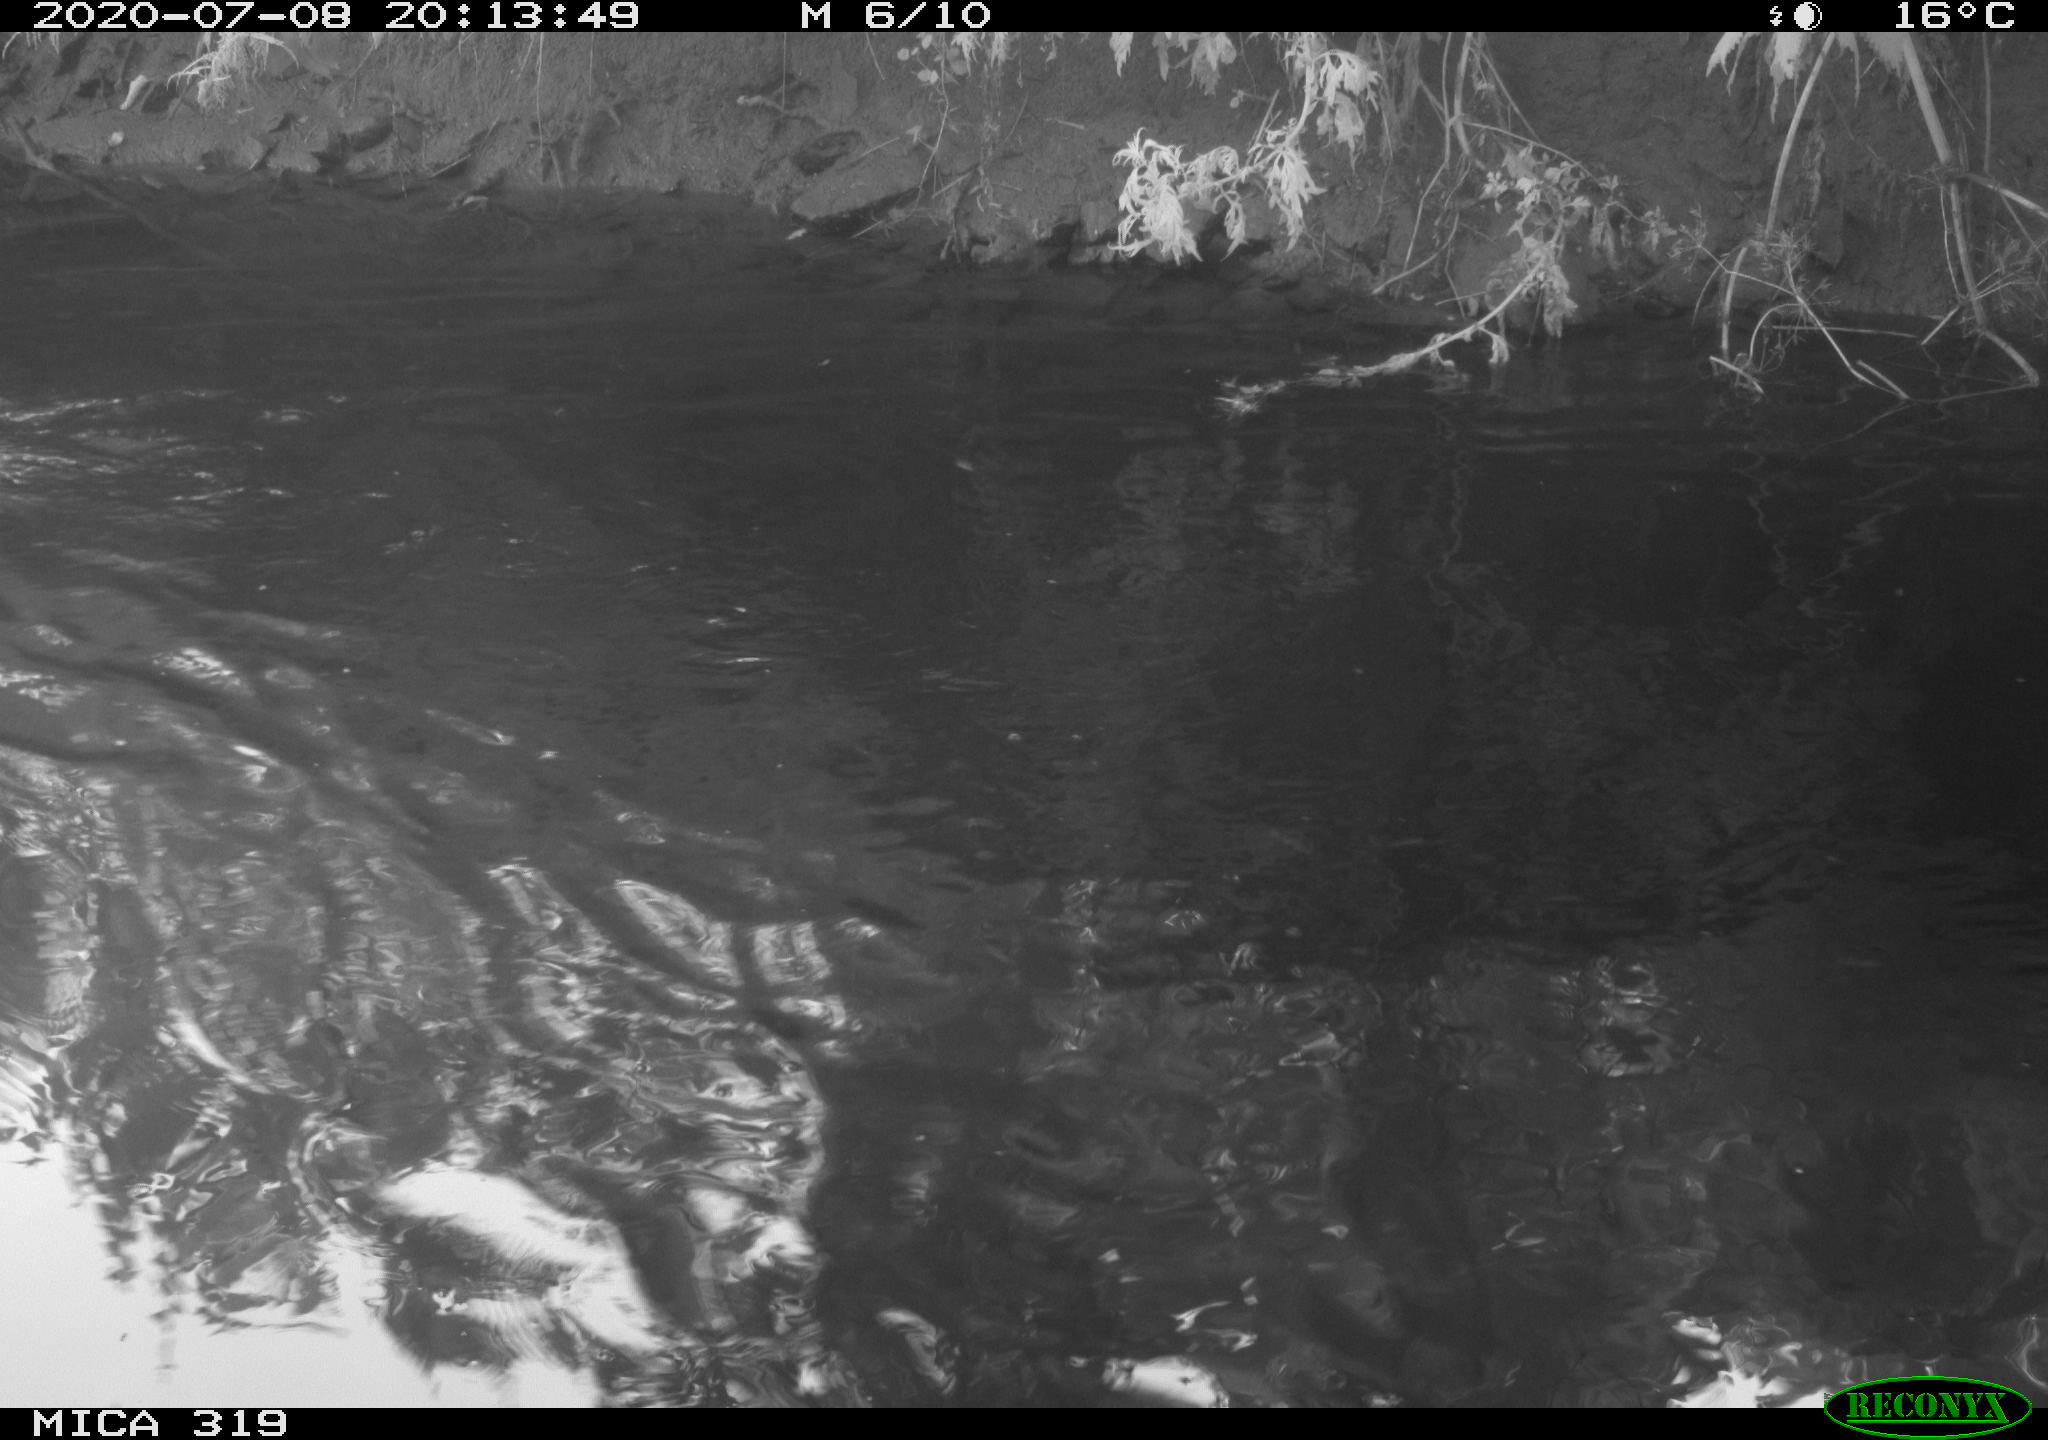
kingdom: Animalia
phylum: Chordata
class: Aves
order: Anseriformes
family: Anatidae
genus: Anas
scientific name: Anas platyrhynchos
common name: Mallard
